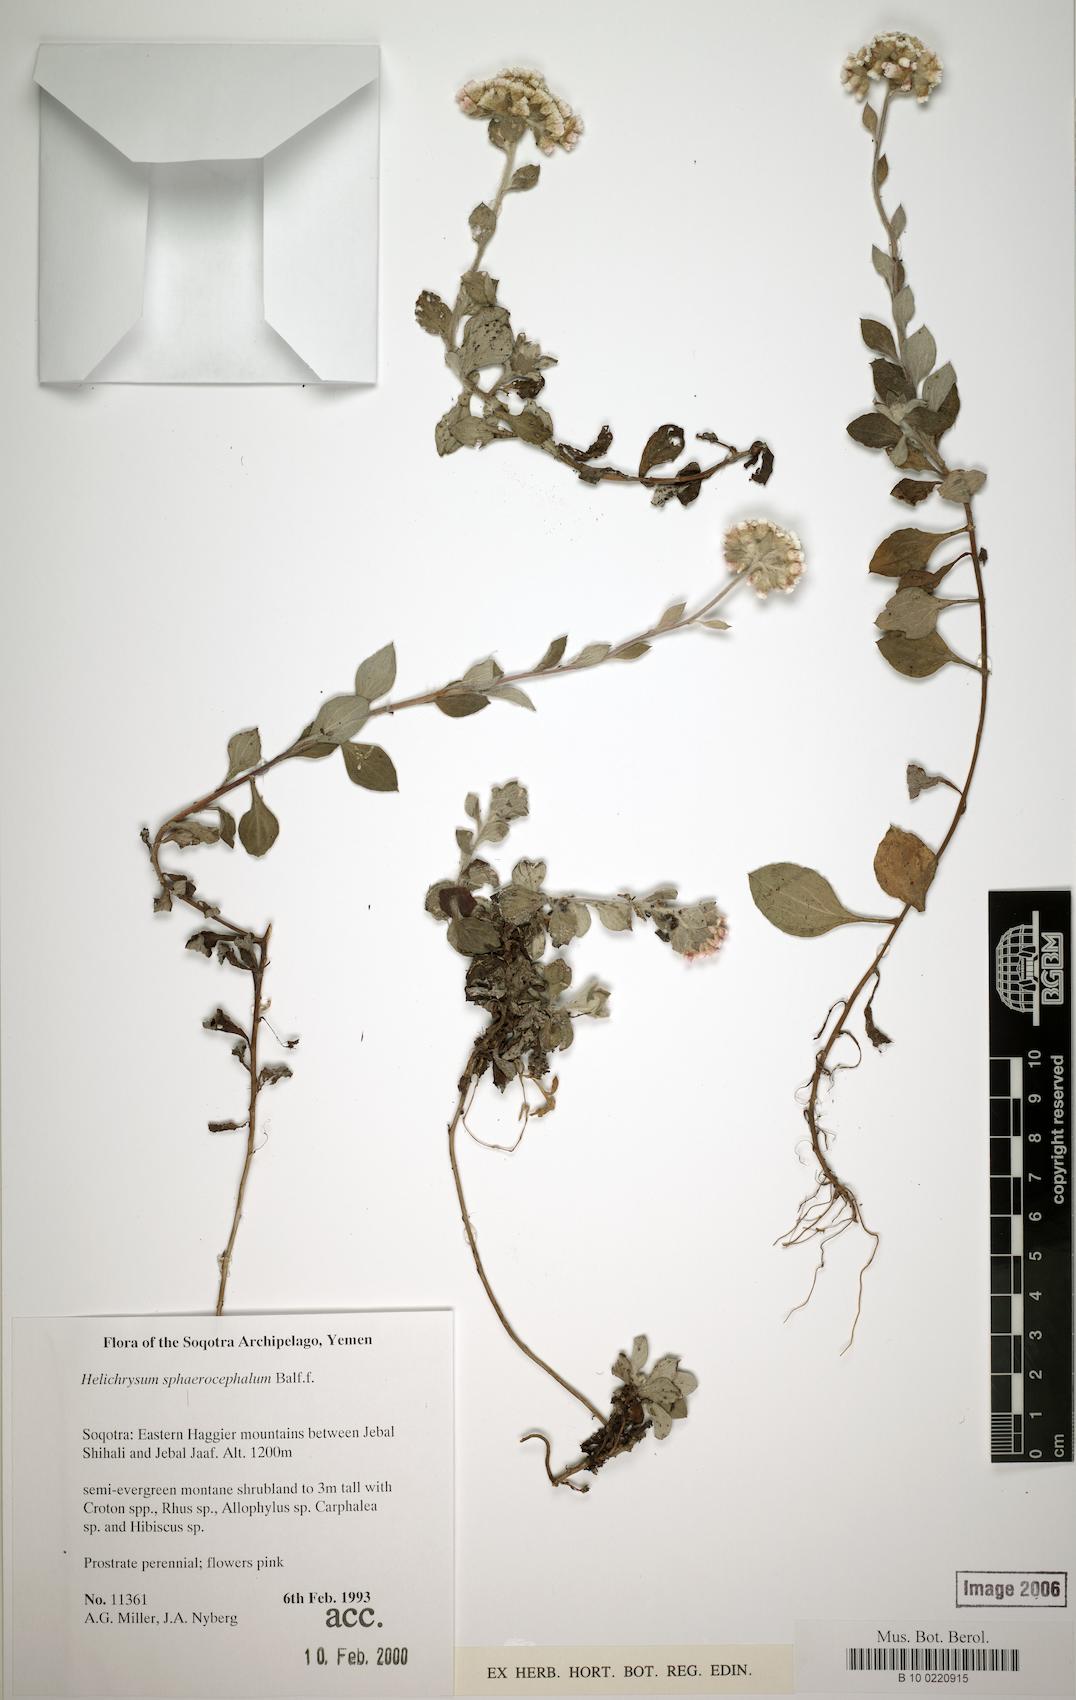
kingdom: Plantae
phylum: Tracheophyta
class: Magnoliopsida
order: Asterales
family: Asteraceae
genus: Libinhania
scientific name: Libinhania sphaerocephala
